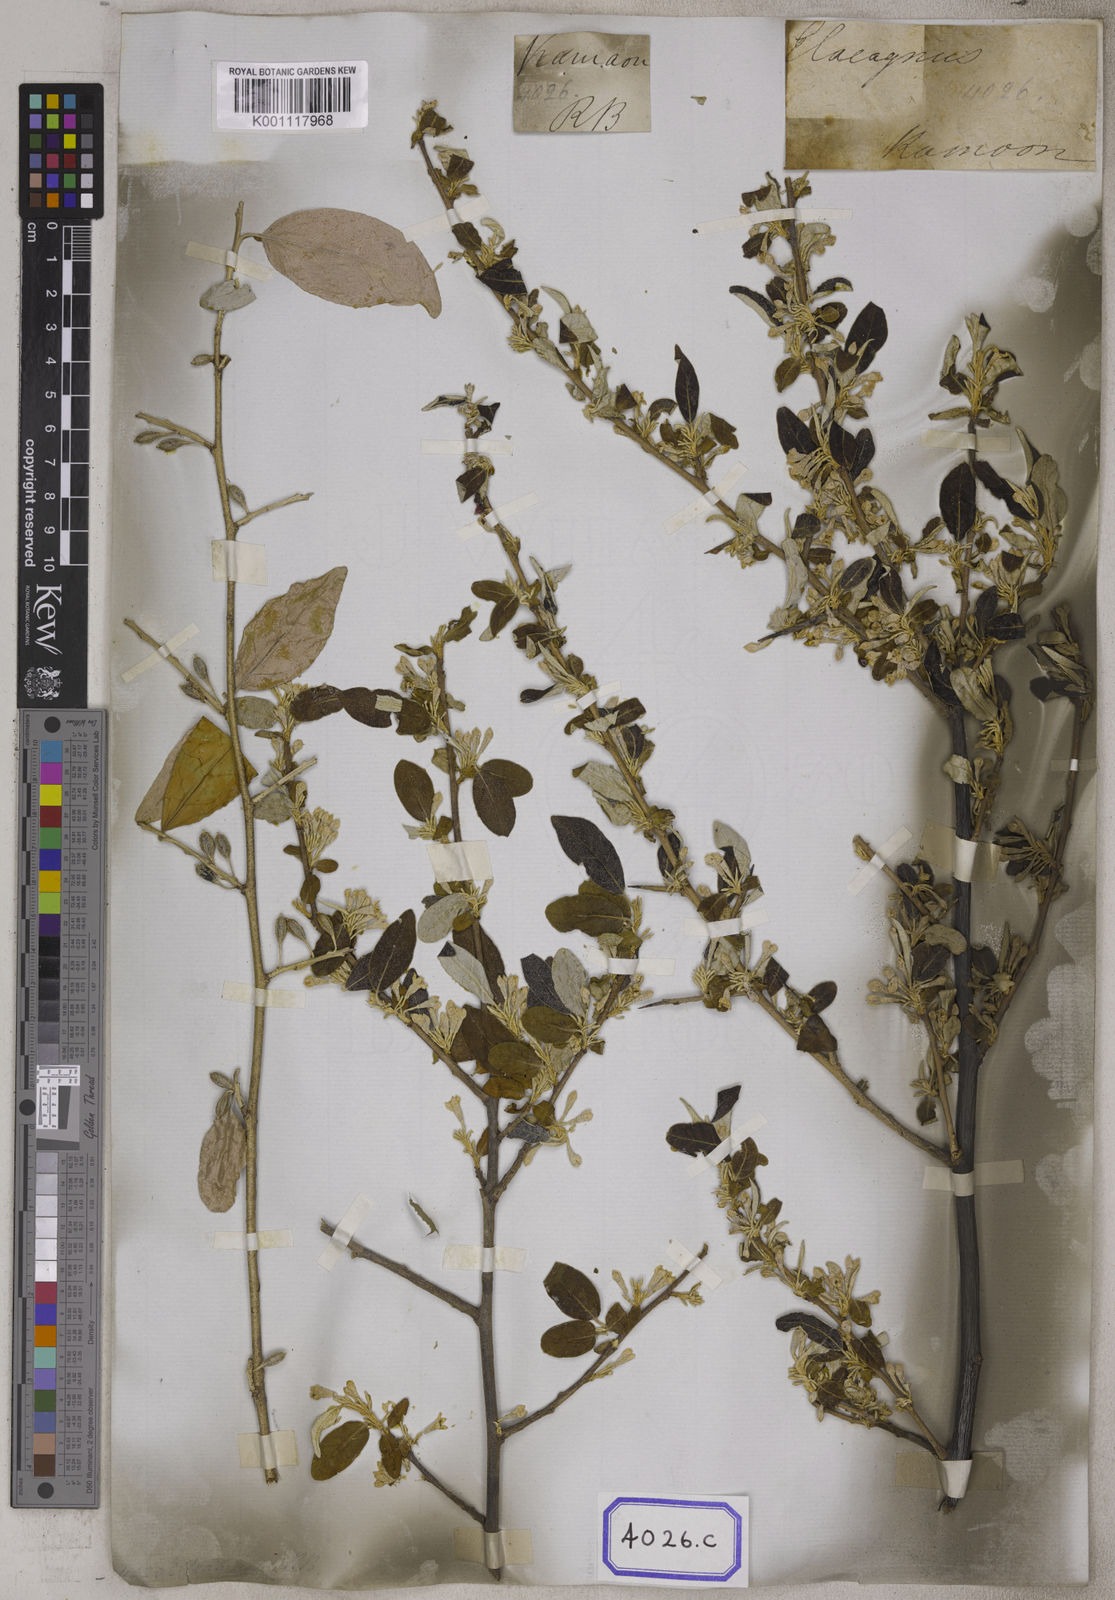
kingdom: Plantae
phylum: Tracheophyta
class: Magnoliopsida
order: Rosales
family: Elaeagnaceae
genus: Elaeagnus
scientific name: Elaeagnus
